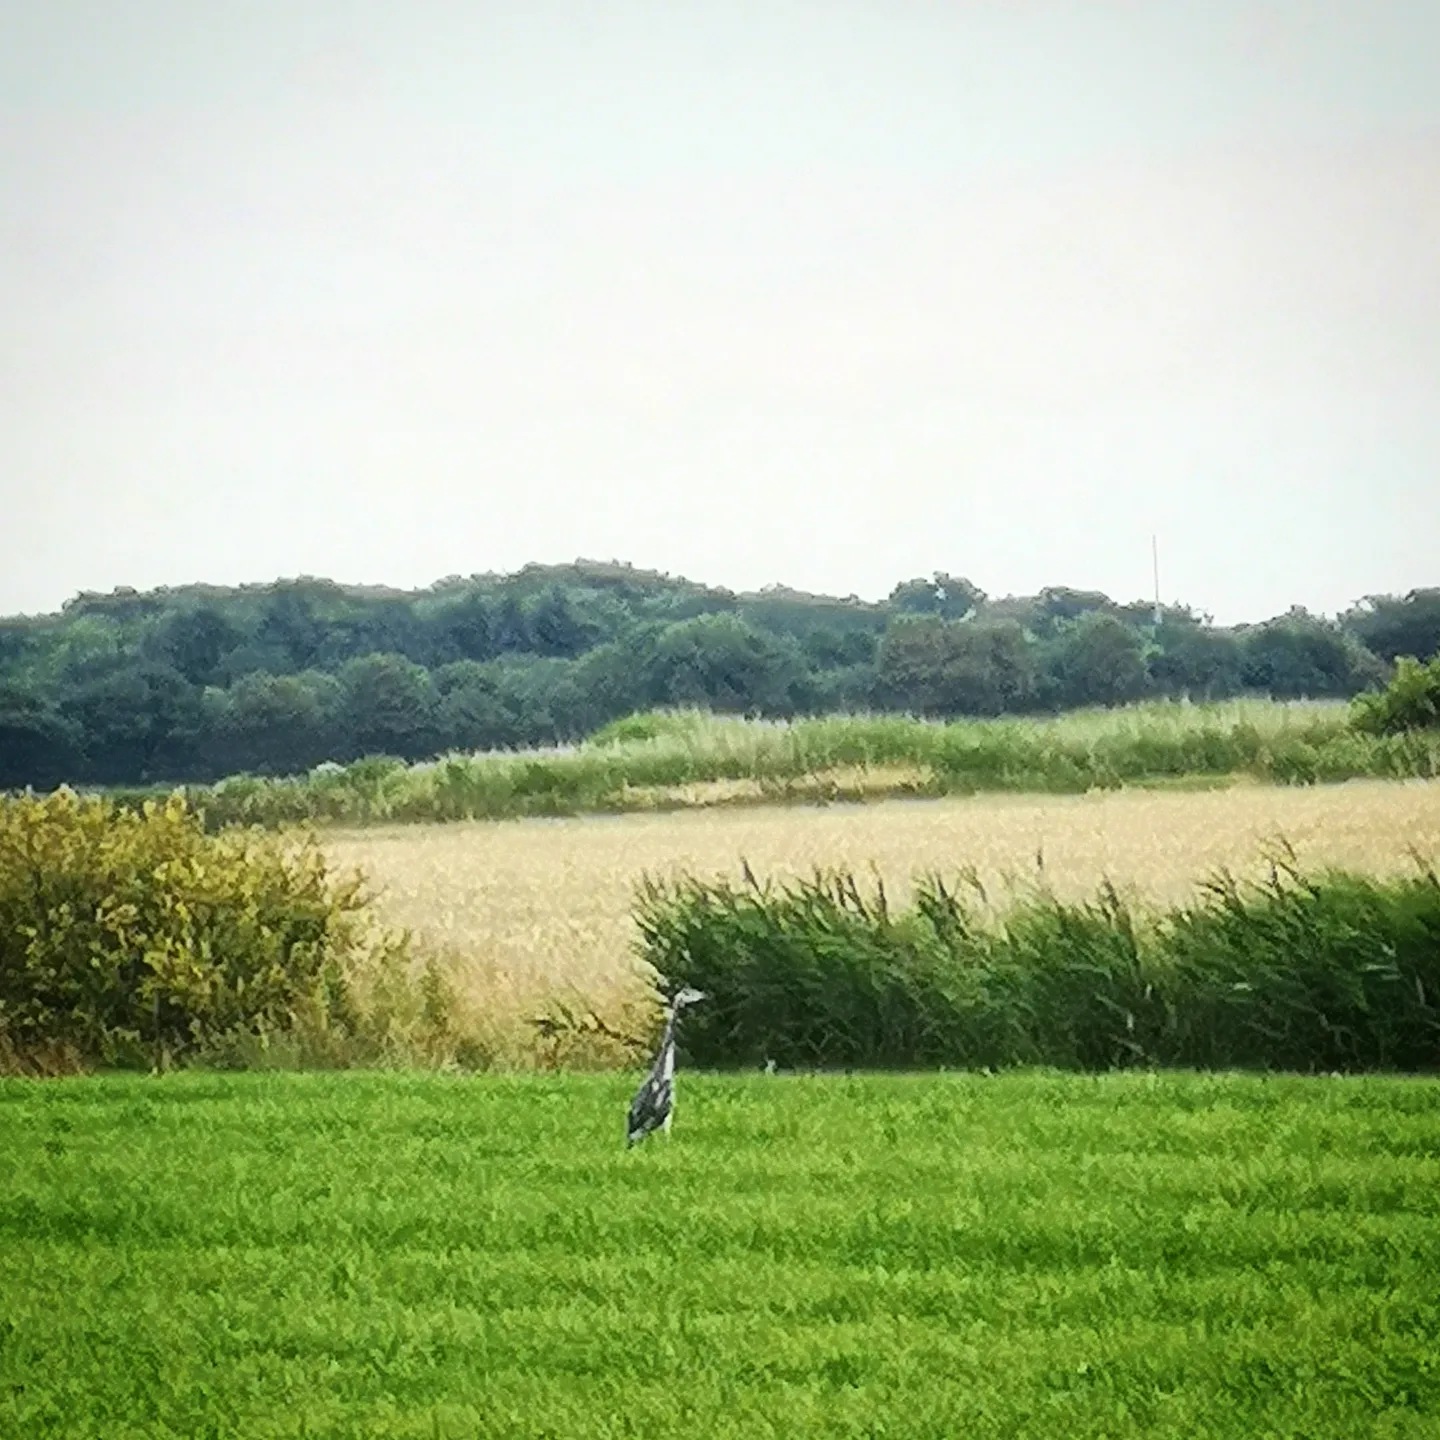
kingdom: Animalia
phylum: Chordata
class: Aves
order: Pelecaniformes
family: Ardeidae
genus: Ardea
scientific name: Ardea cinerea
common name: Fiskehejre
